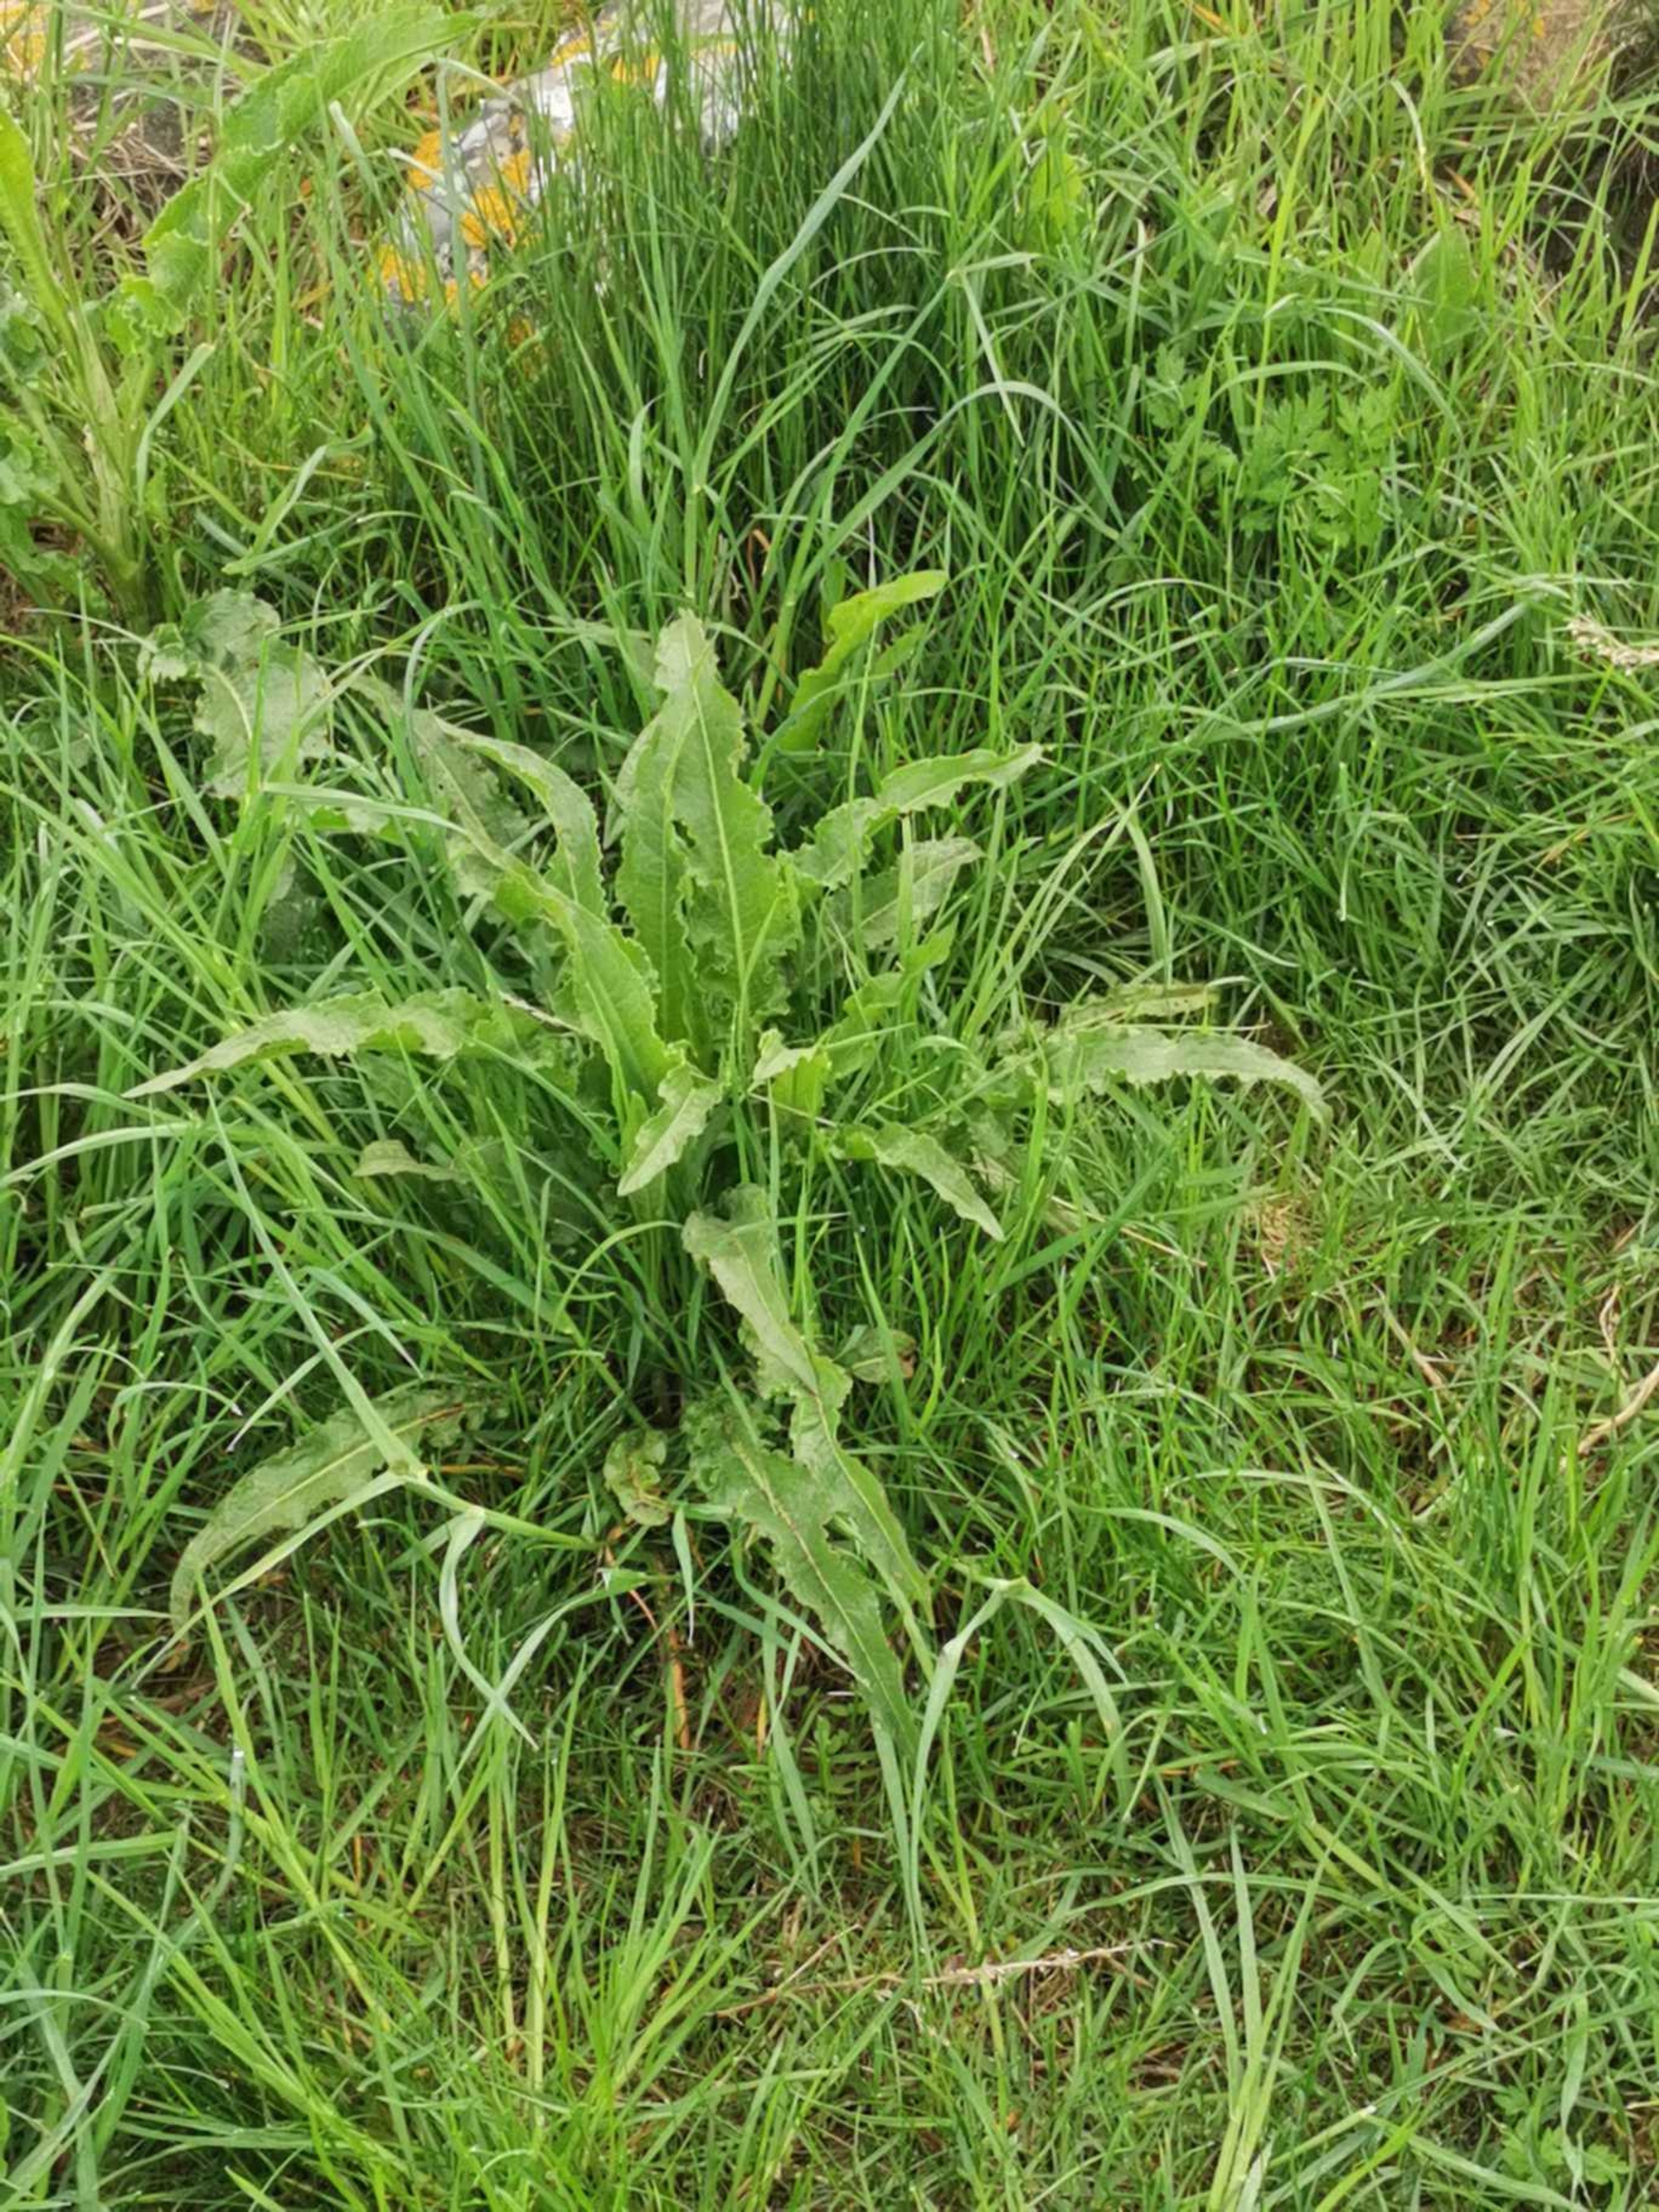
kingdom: Plantae
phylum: Tracheophyta
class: Magnoliopsida
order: Caryophyllales
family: Polygonaceae
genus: Rumex
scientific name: Rumex crispus
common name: Kruset skræppe
